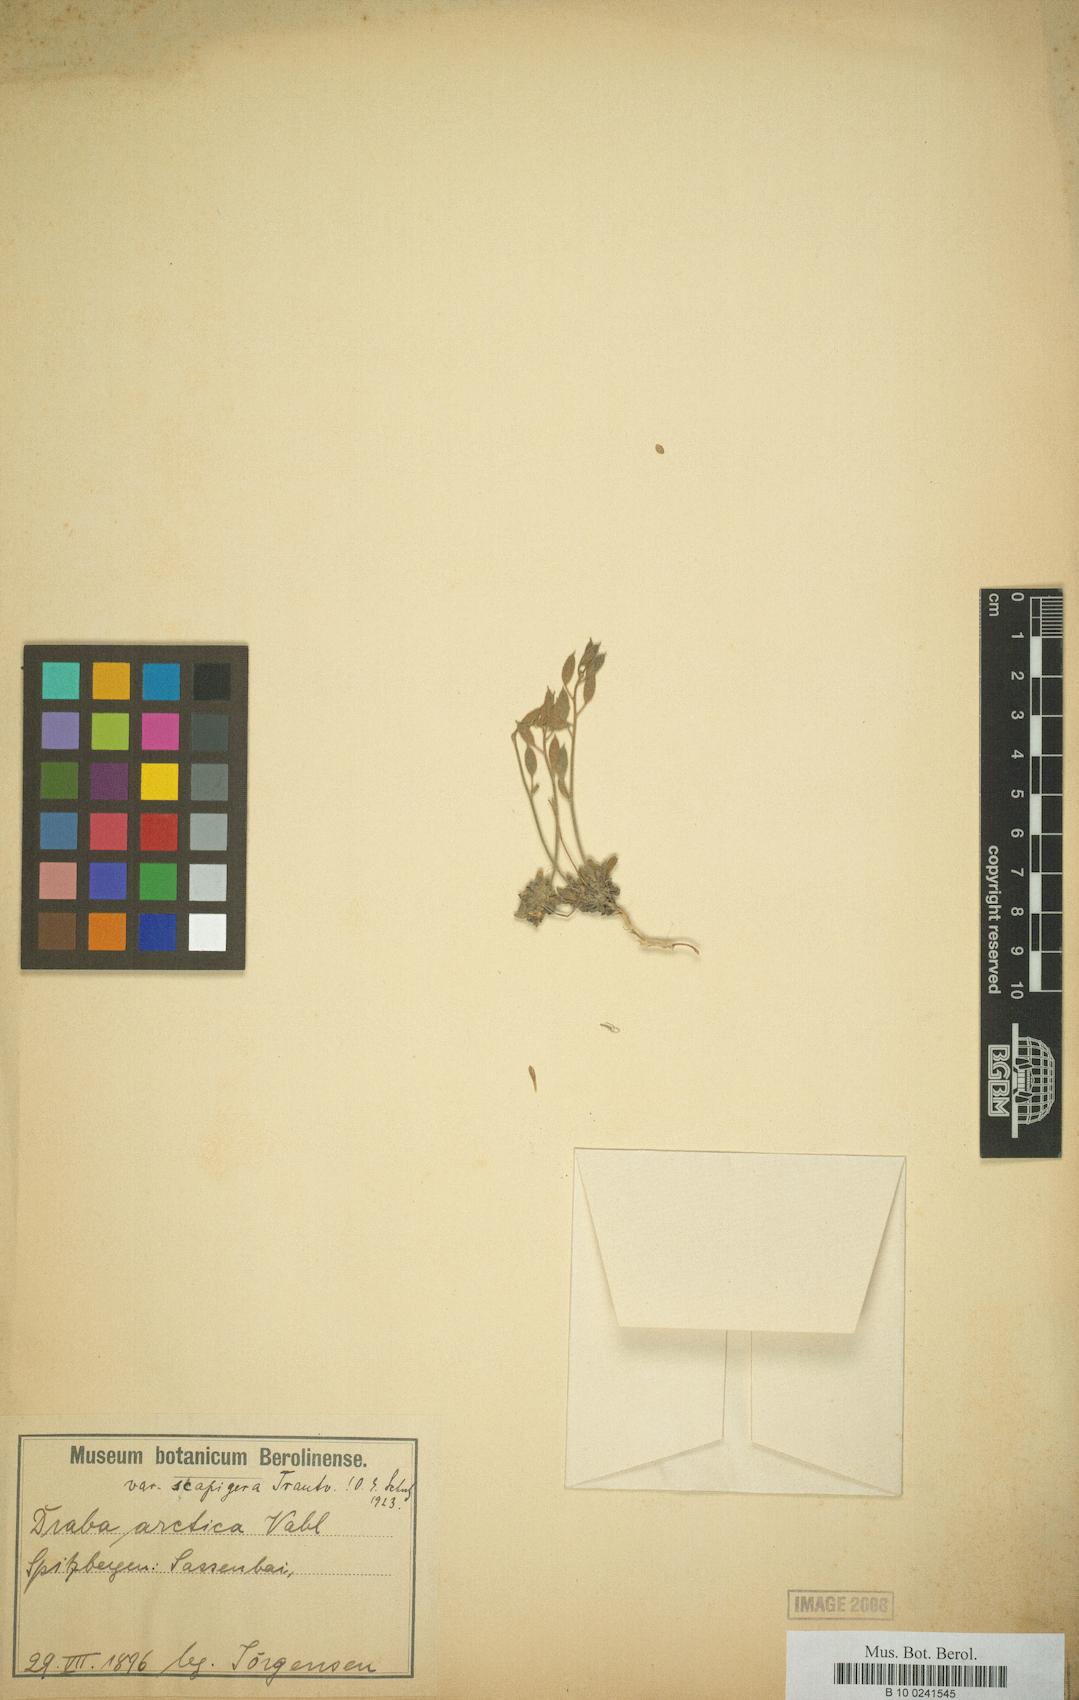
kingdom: Plantae
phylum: Tracheophyta
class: Magnoliopsida
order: Brassicales
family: Brassicaceae
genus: Draba
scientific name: Draba cinerea
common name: Ash-coloured whitlow-grass
